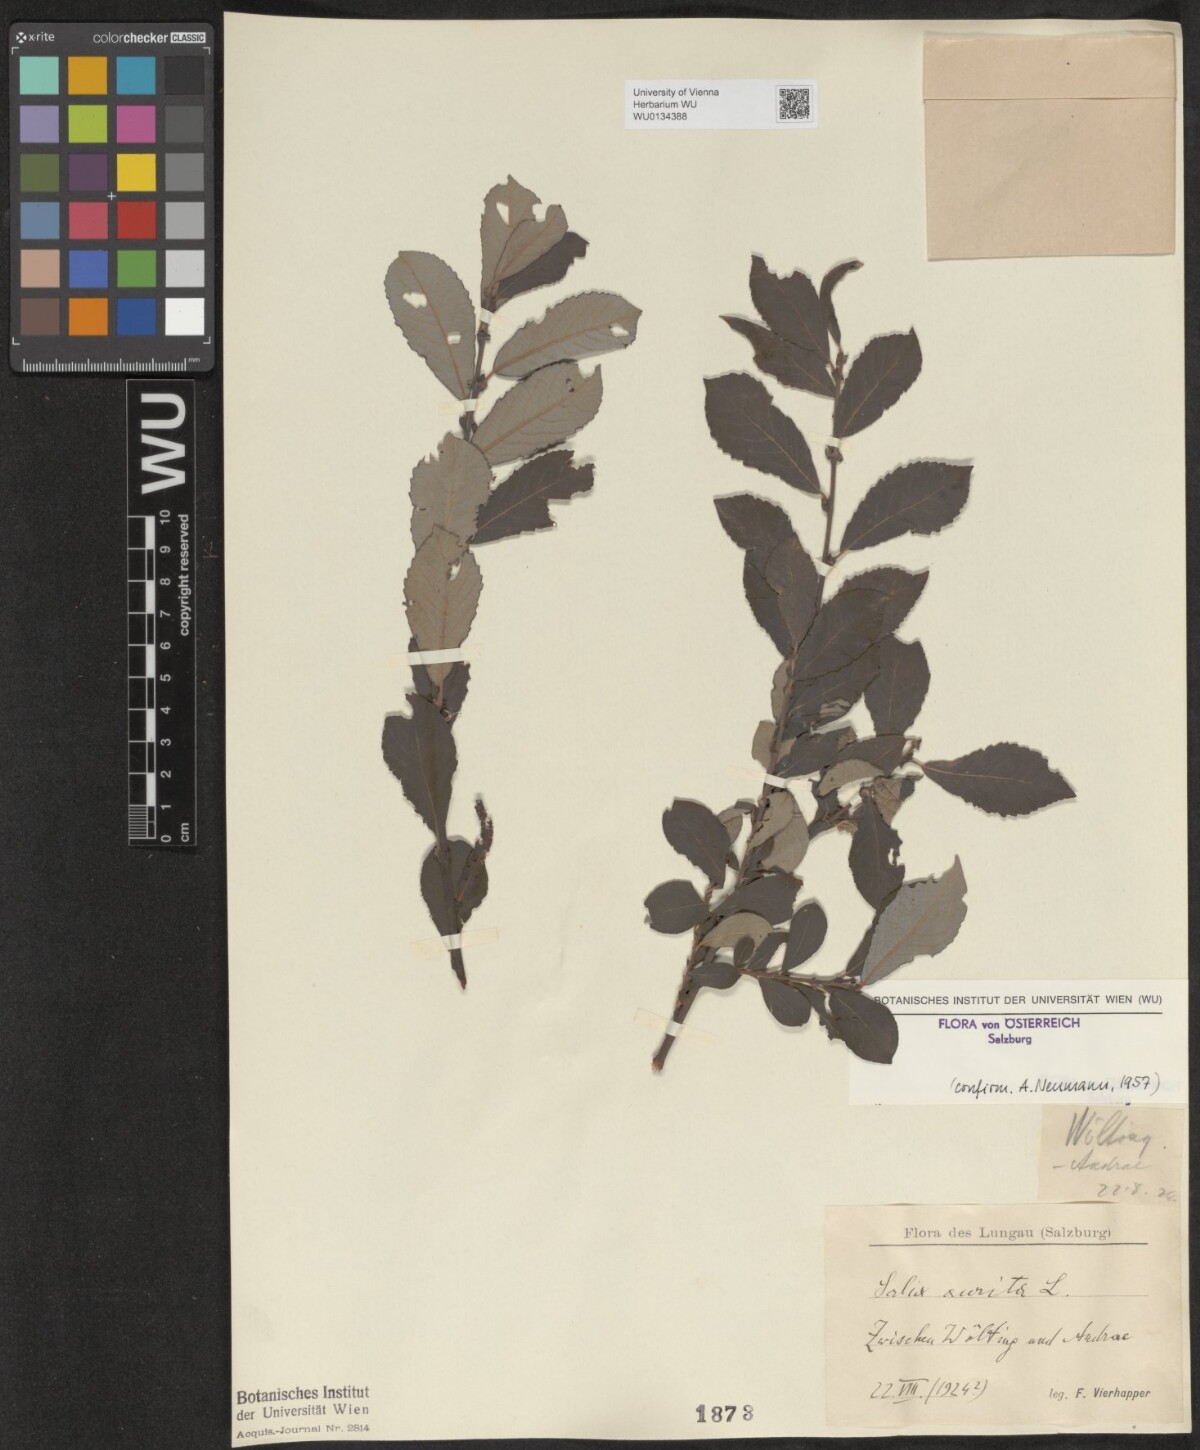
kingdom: Plantae
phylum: Tracheophyta
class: Magnoliopsida
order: Malpighiales
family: Salicaceae
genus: Salix
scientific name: Salix aurita
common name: Eared willow
